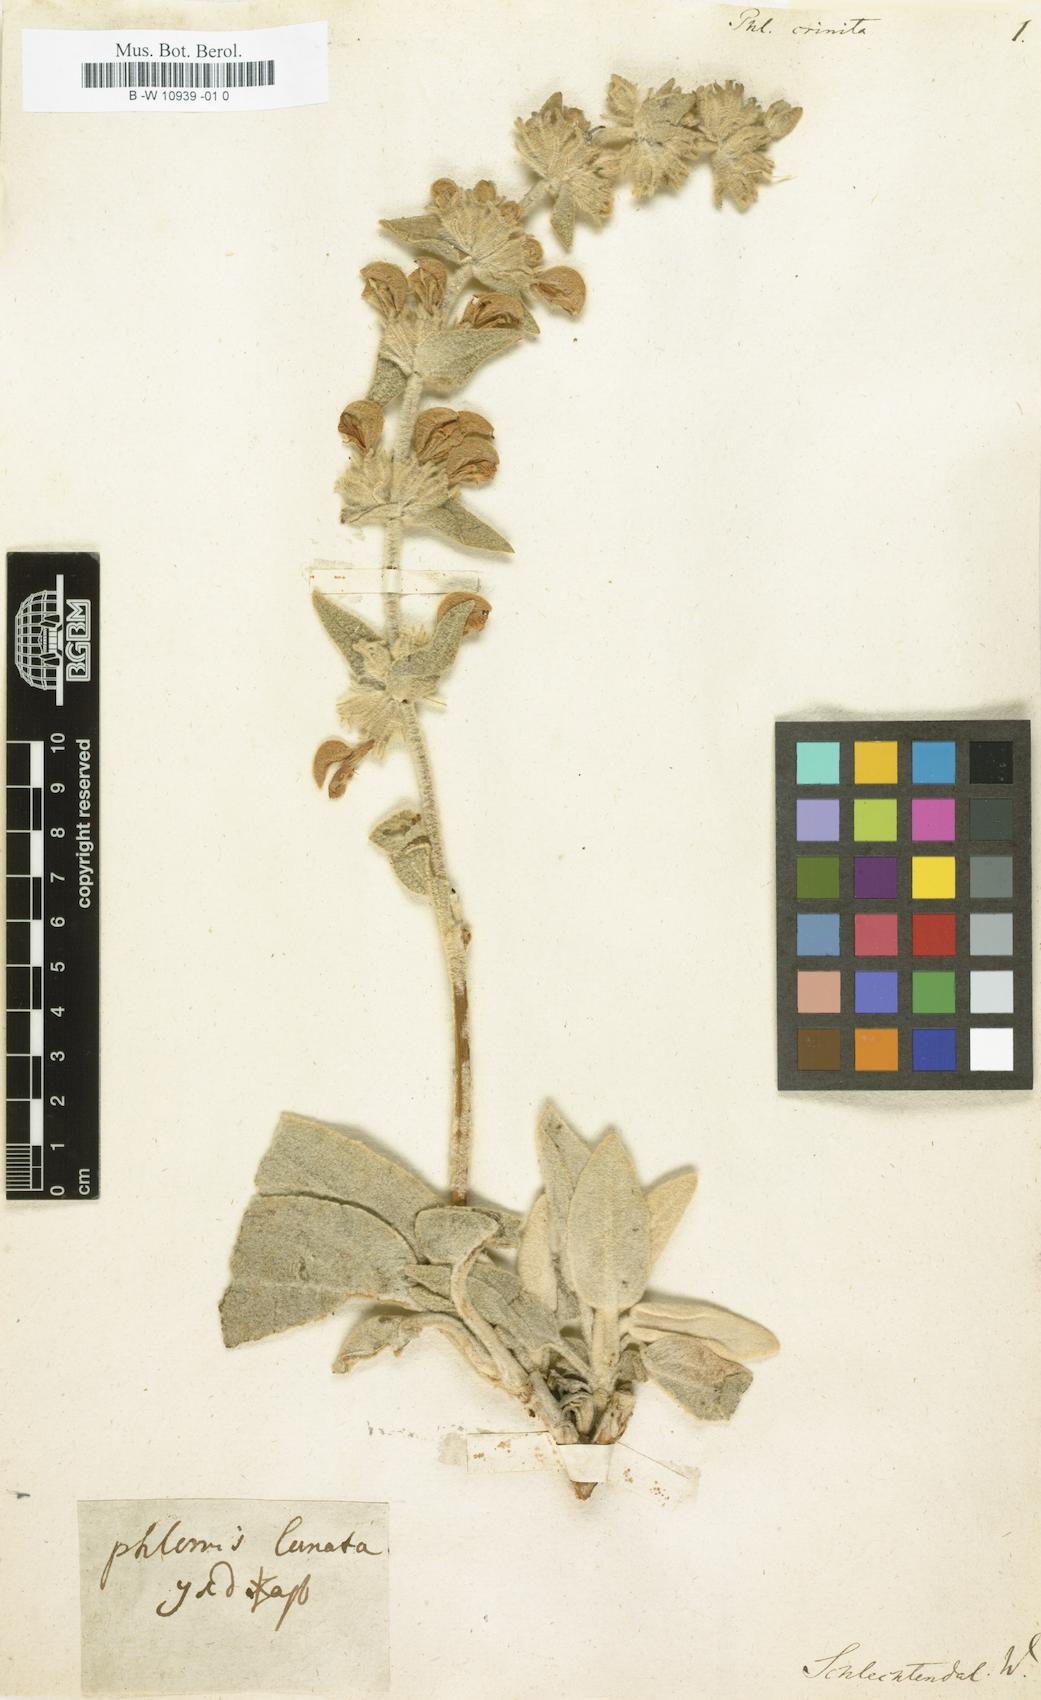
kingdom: Plantae
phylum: Tracheophyta
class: Magnoliopsida
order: Lamiales
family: Lamiaceae
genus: Phlomis
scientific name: Phlomis crinita
